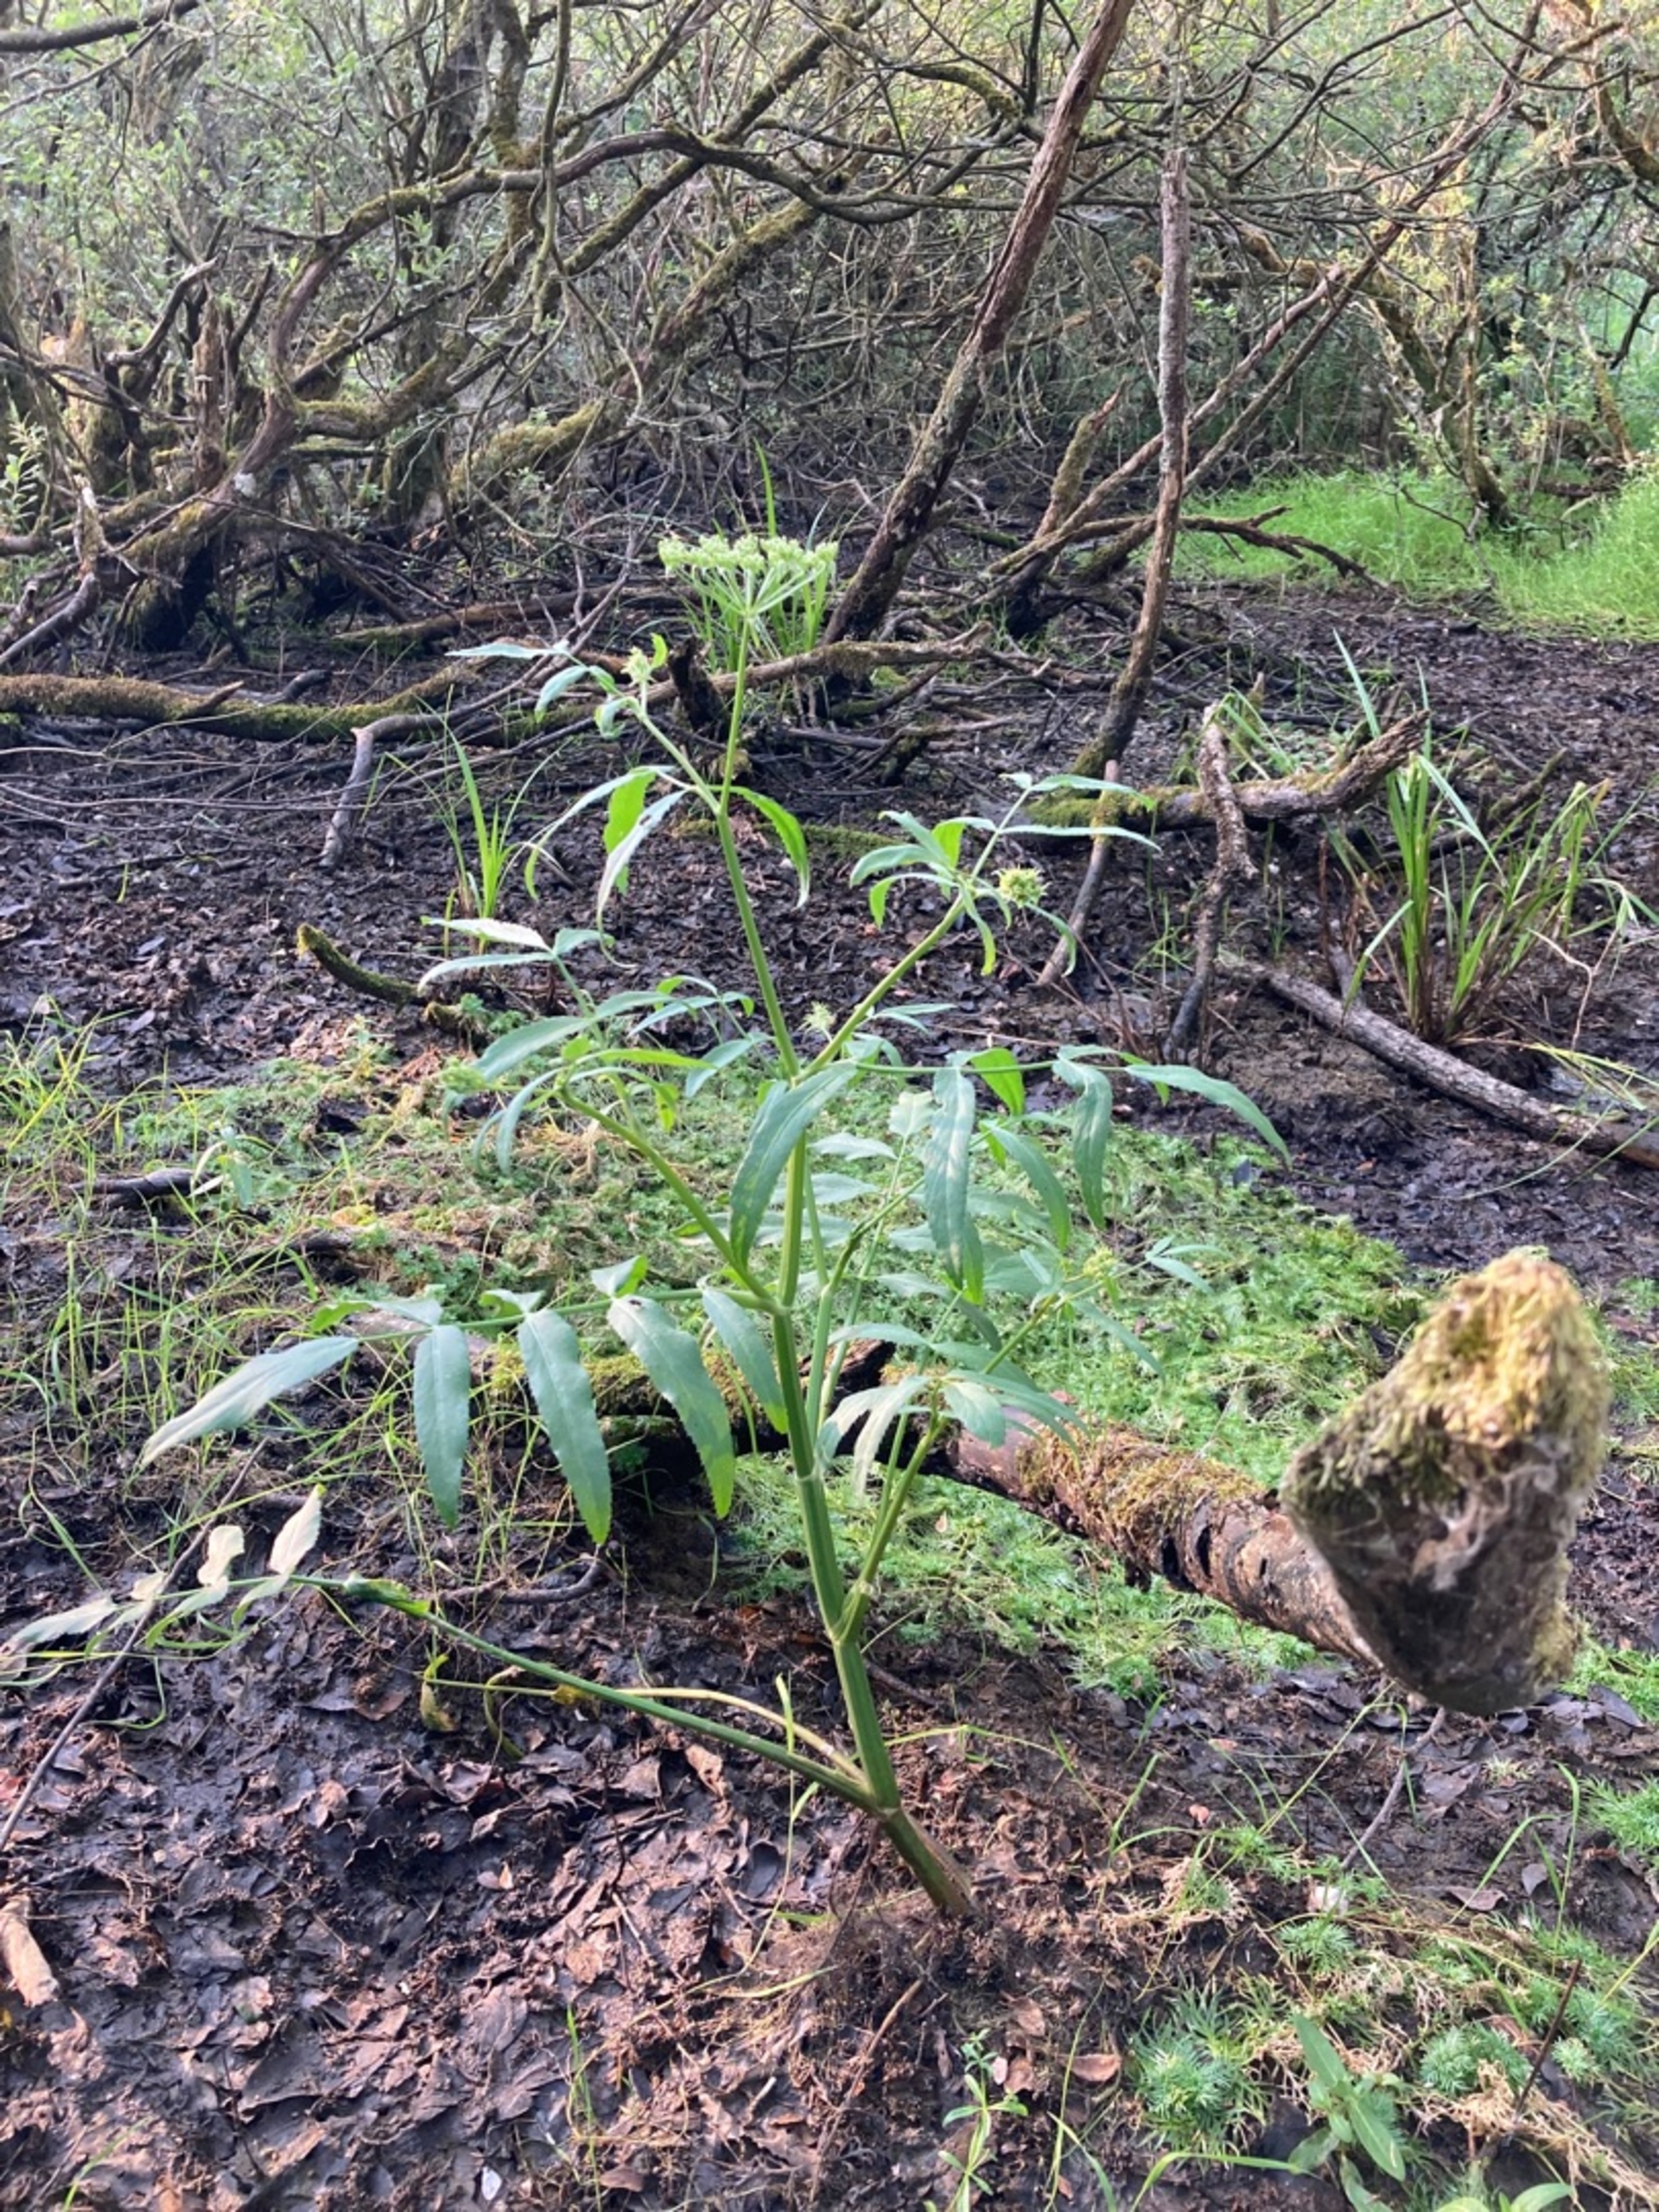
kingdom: Plantae
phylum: Tracheophyta
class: Magnoliopsida
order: Apiales
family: Apiaceae
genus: Sium
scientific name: Sium latifolium
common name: Bredbladet mærke
